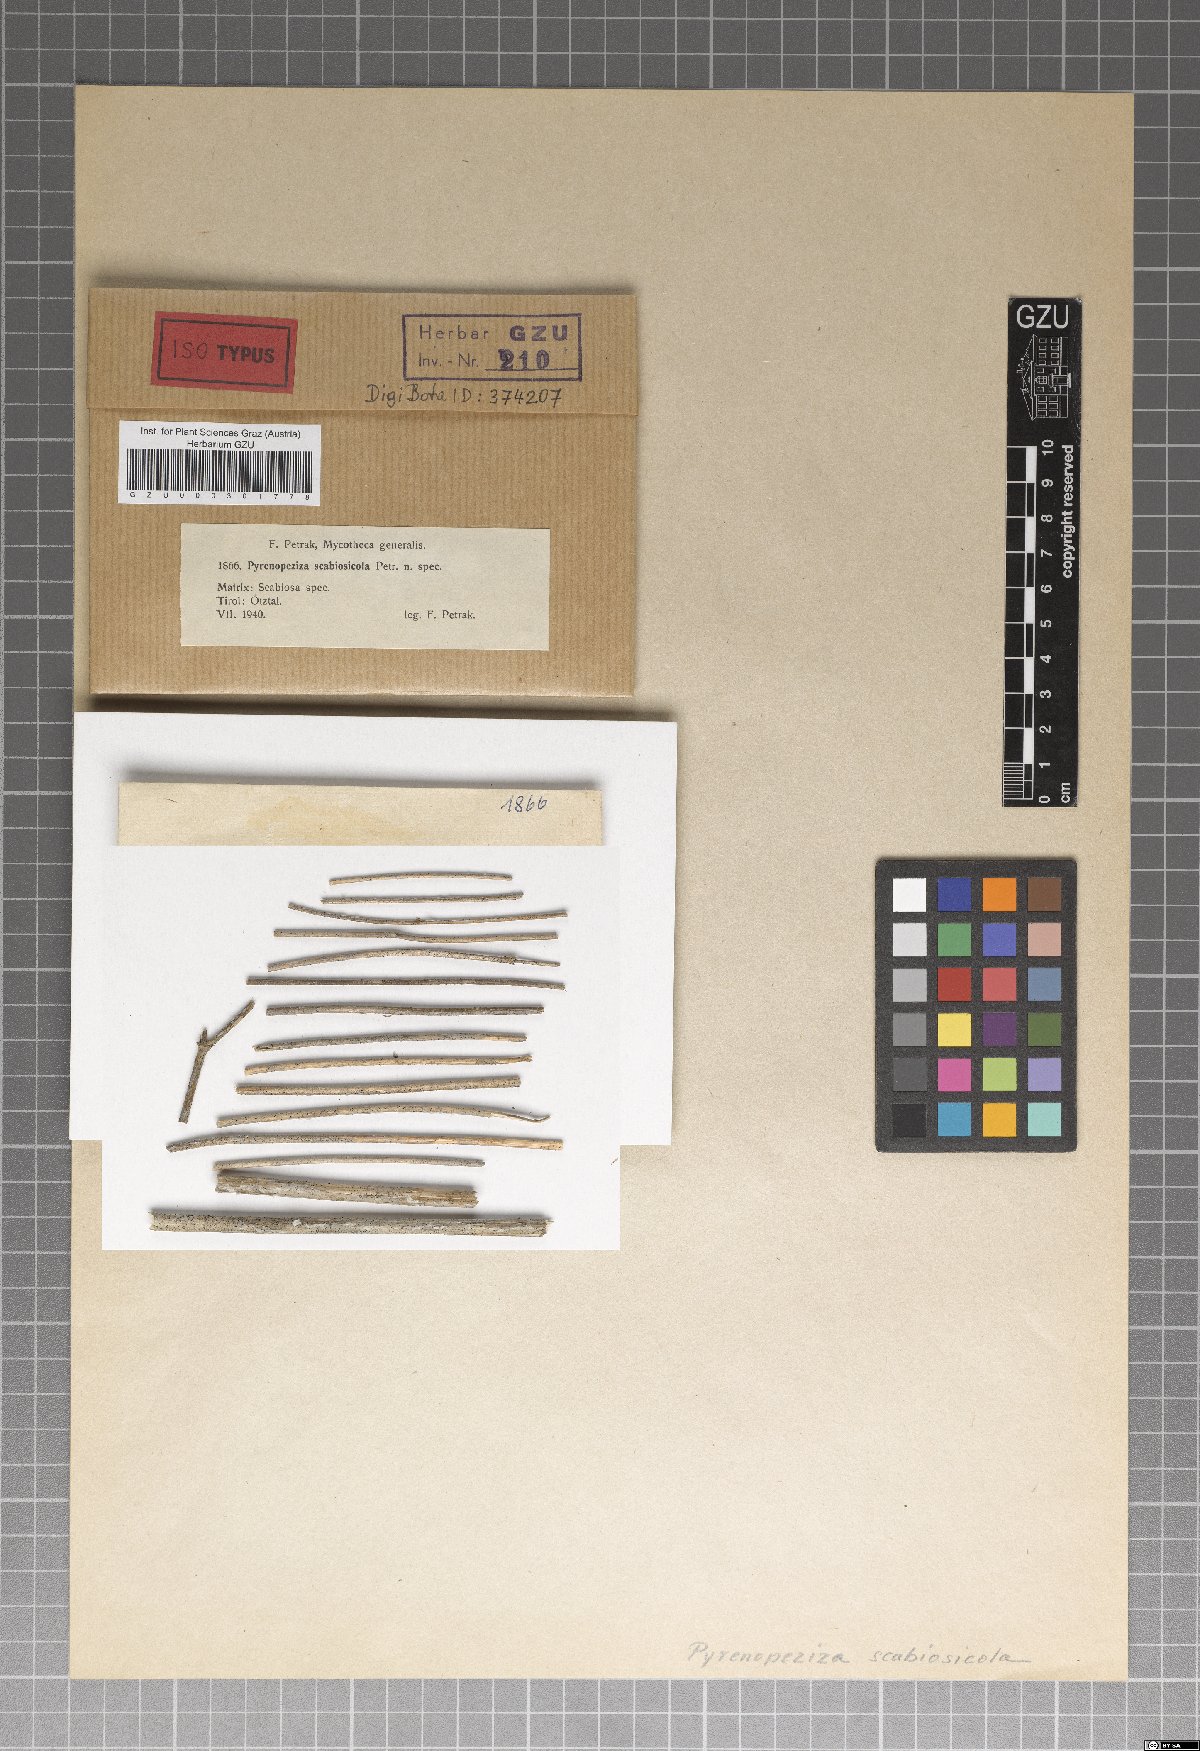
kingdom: Fungi
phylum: Ascomycota
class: Leotiomycetes
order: Helotiales
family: Dermateaceae
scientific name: Dermateaceae
